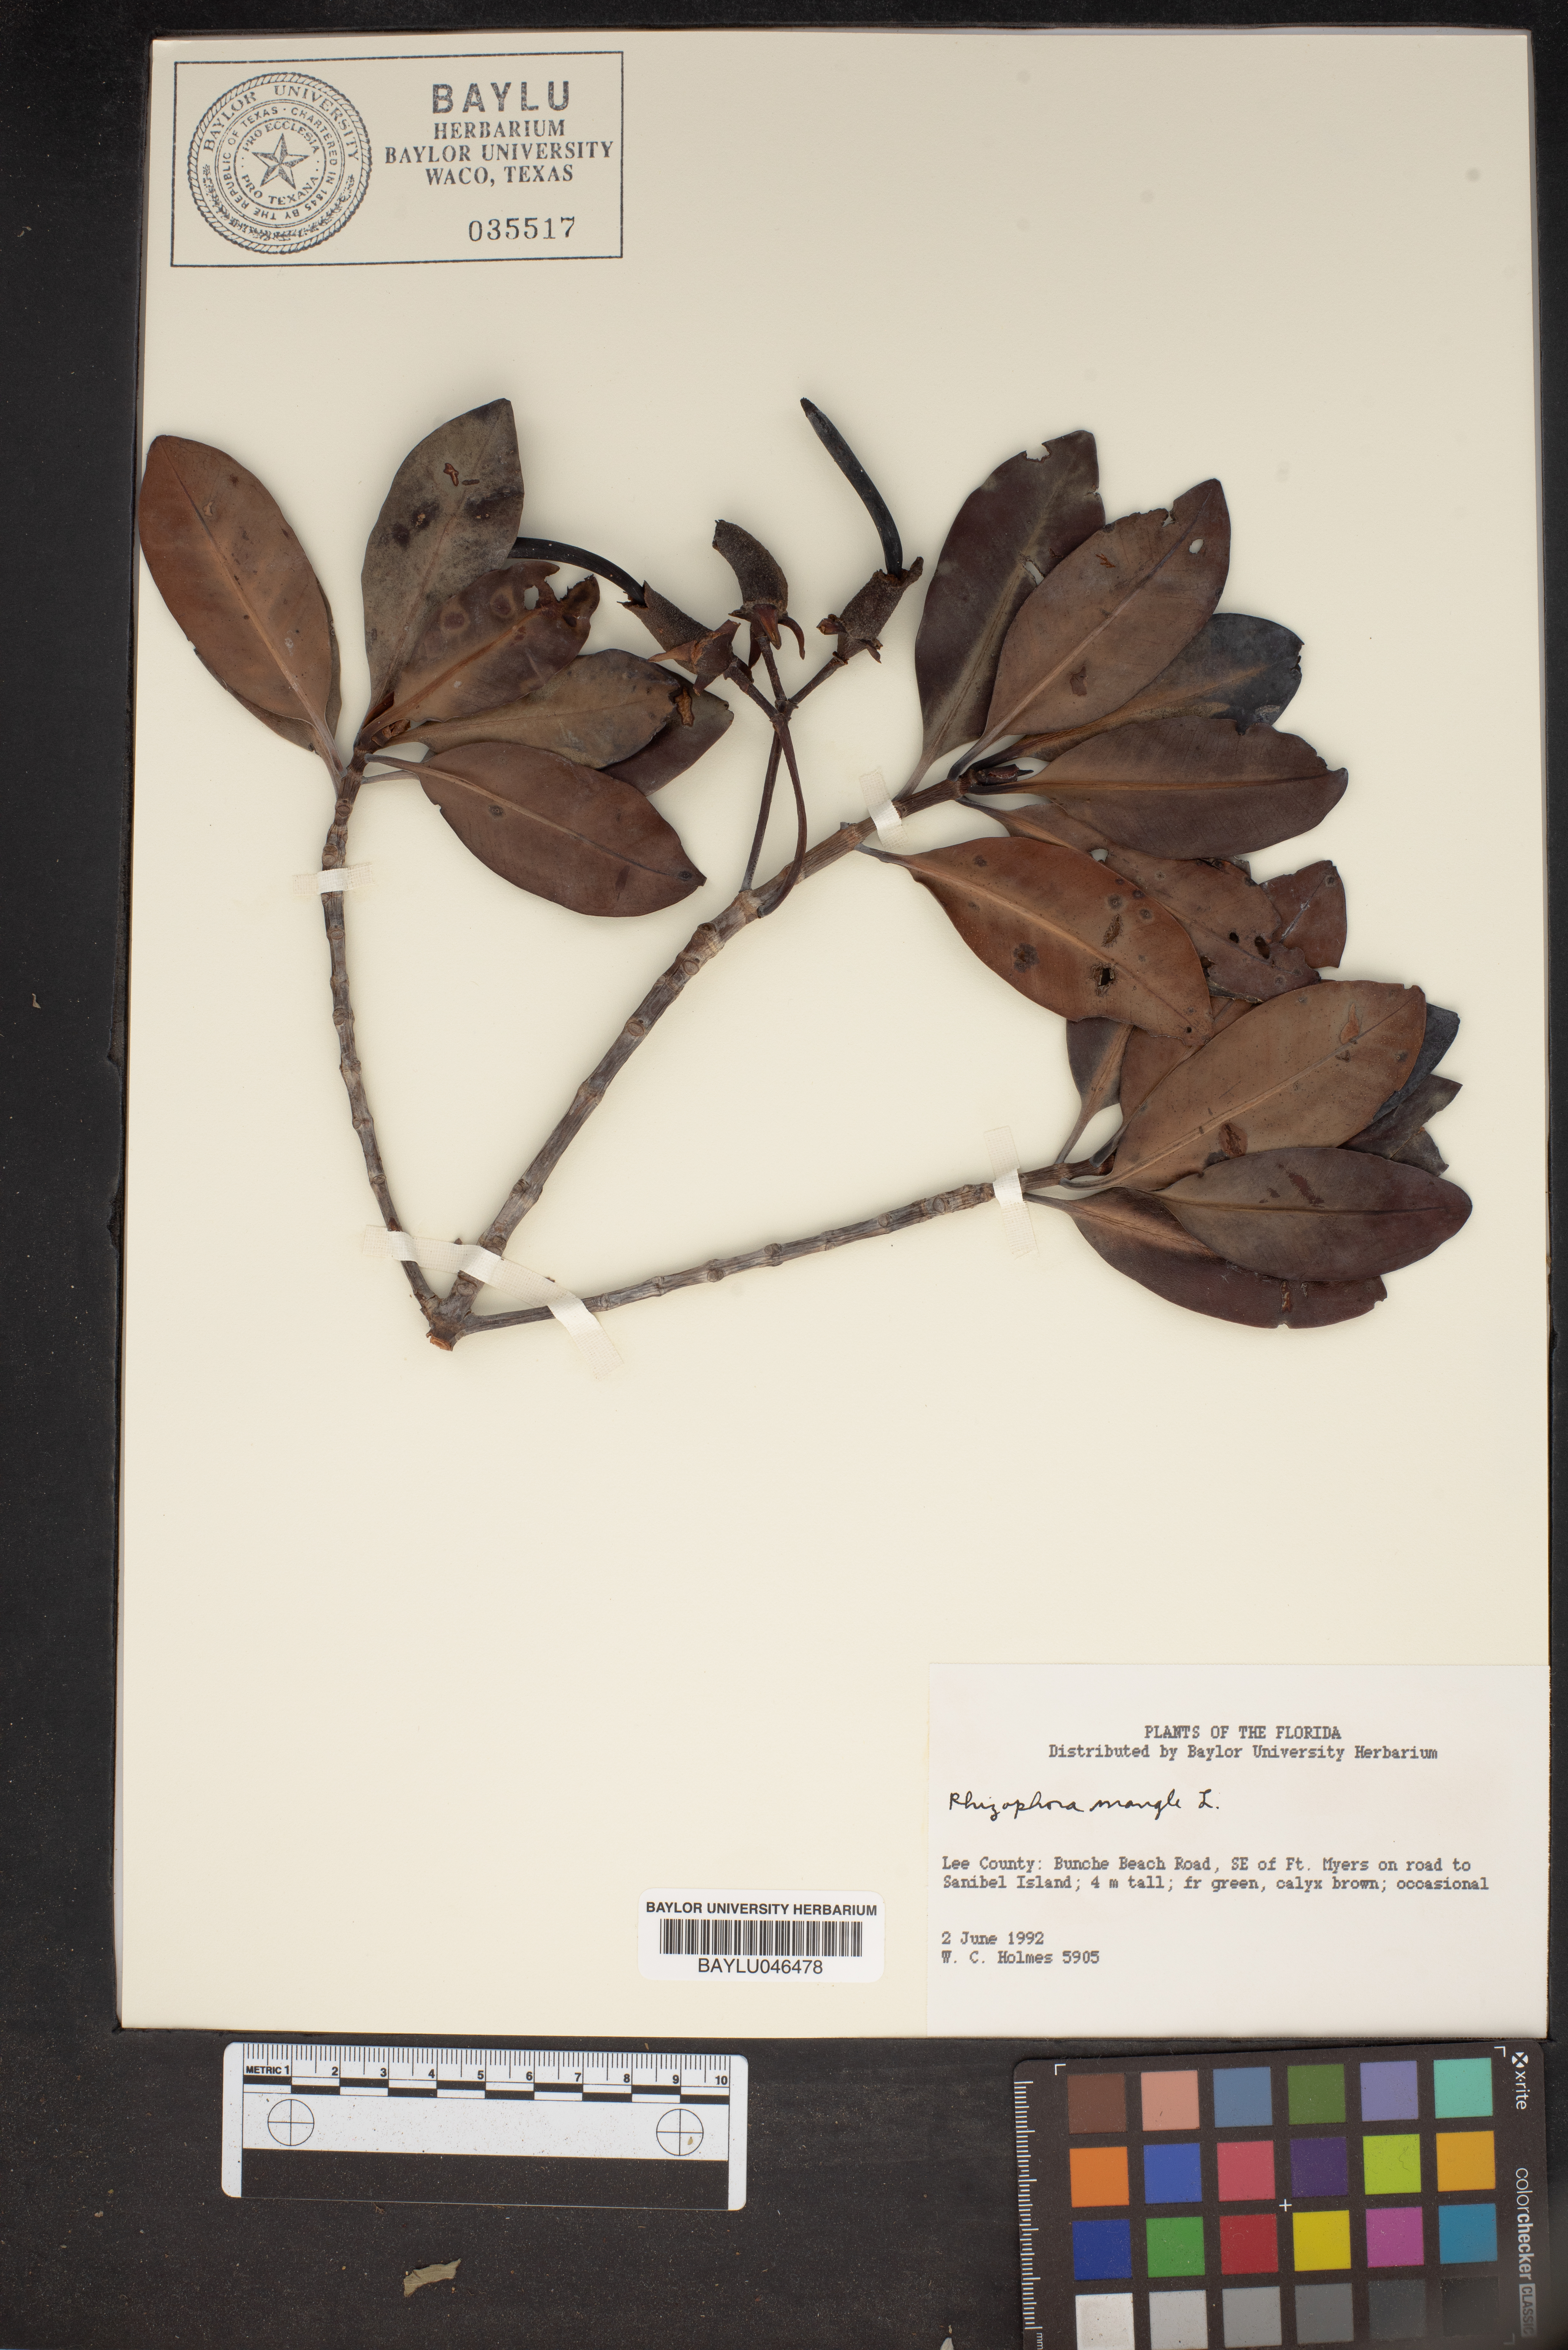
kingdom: Plantae
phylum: Tracheophyta
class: Magnoliopsida
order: Malpighiales
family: Rhizophoraceae
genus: Rhizophora
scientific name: Rhizophora mucronata
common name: Loop-root mangrove
